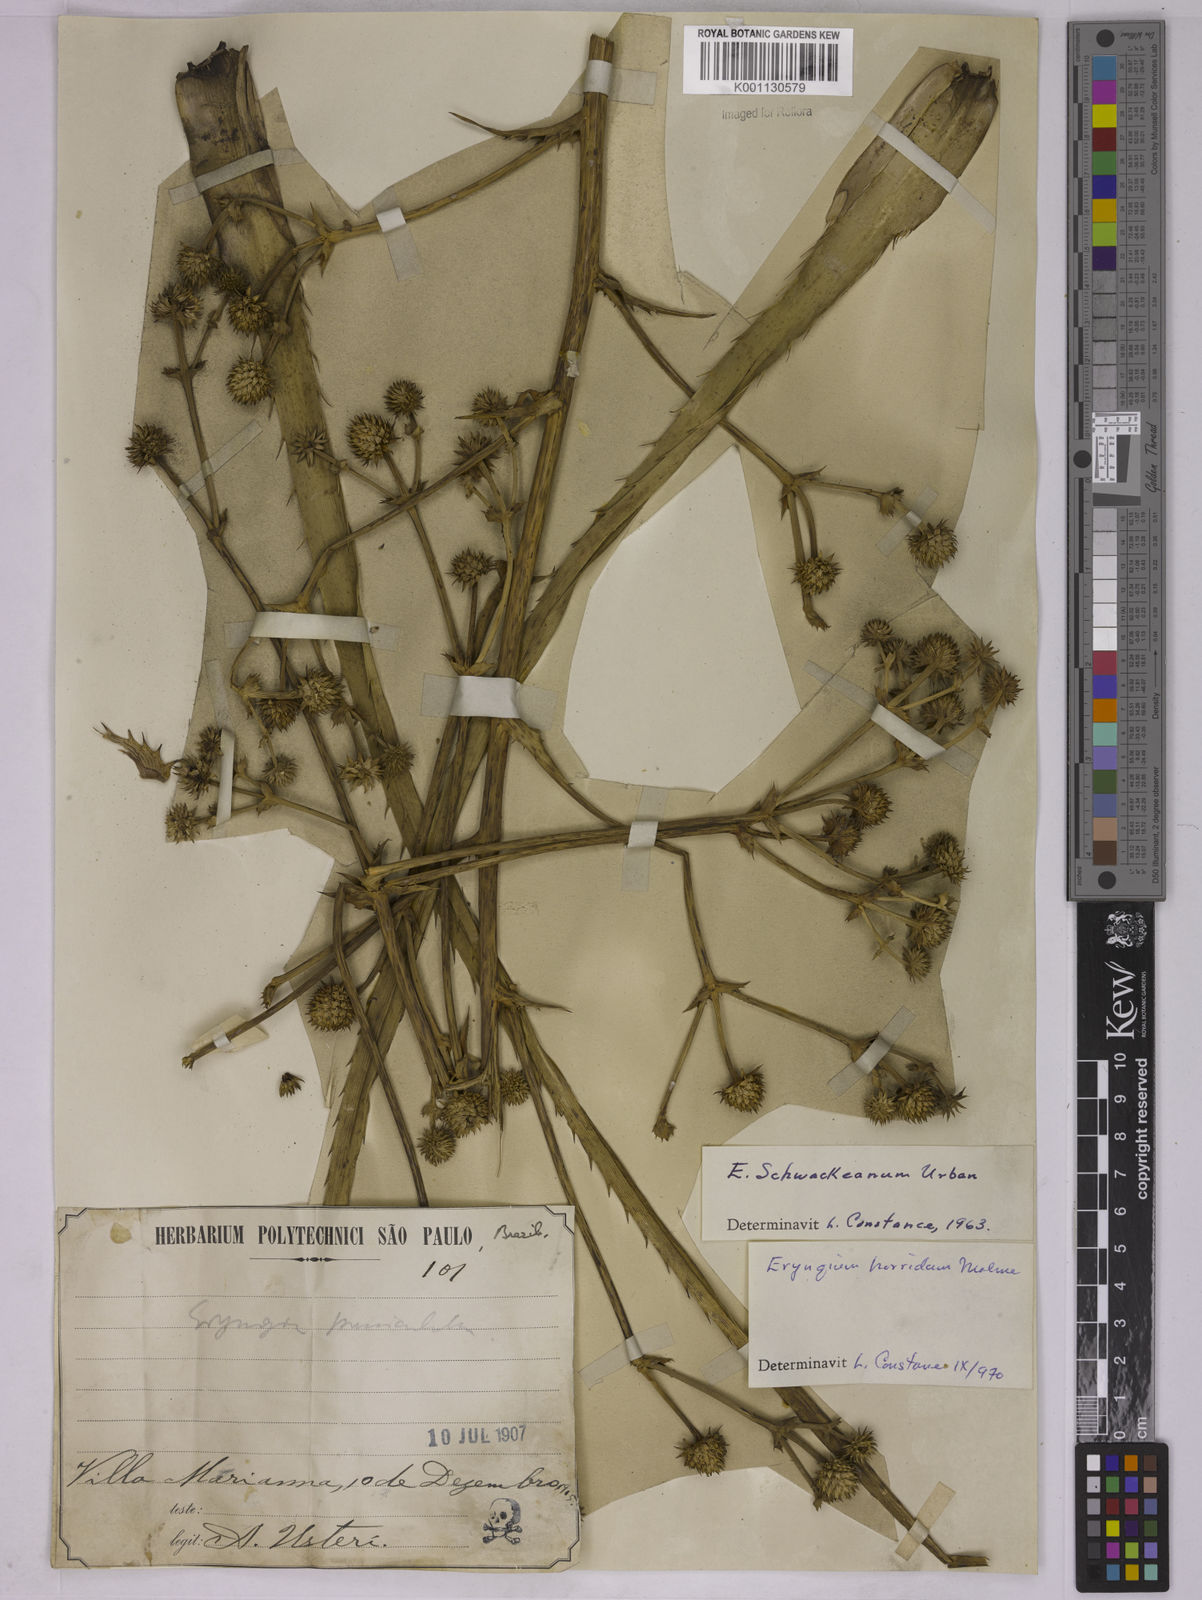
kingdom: Plantae
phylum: Tracheophyta
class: Magnoliopsida
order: Apiales
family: Apiaceae
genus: Eryngium
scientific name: Eryngium horridum
